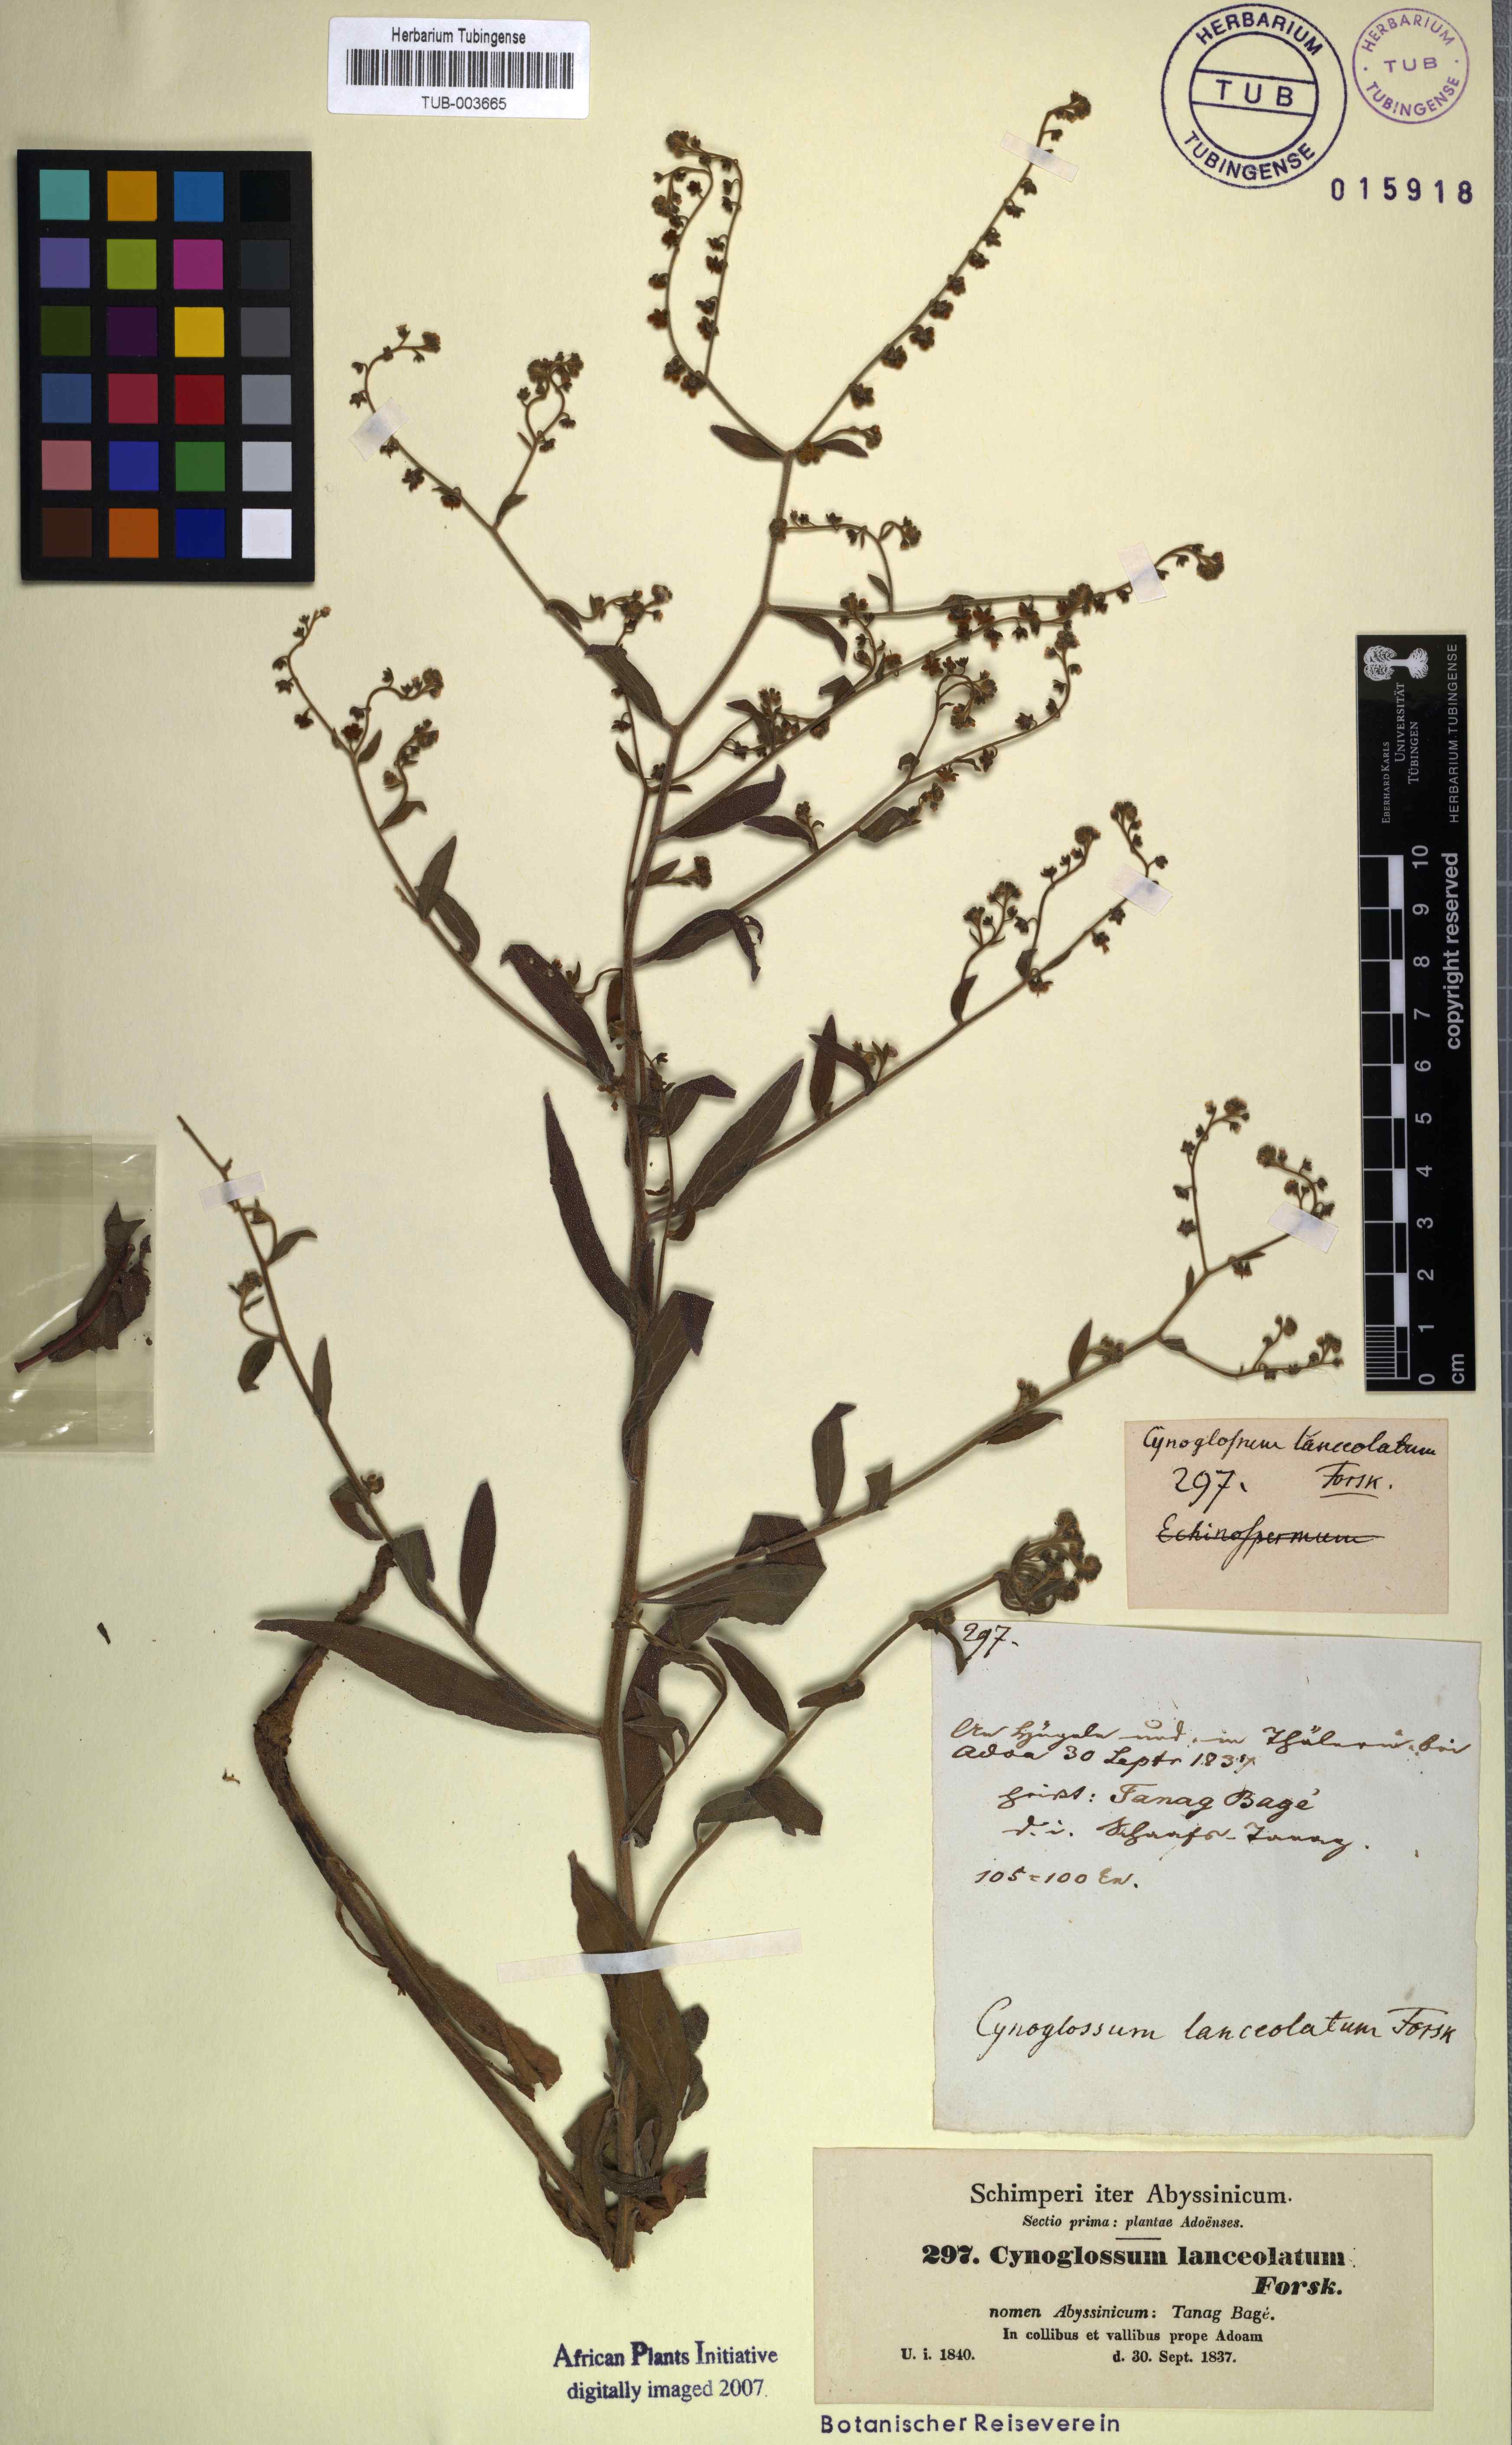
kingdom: Plantae
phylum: Tracheophyta
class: Magnoliopsida
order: Boraginales
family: Boraginaceae
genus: Paracynoglossum
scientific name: Paracynoglossum lanceolatum
